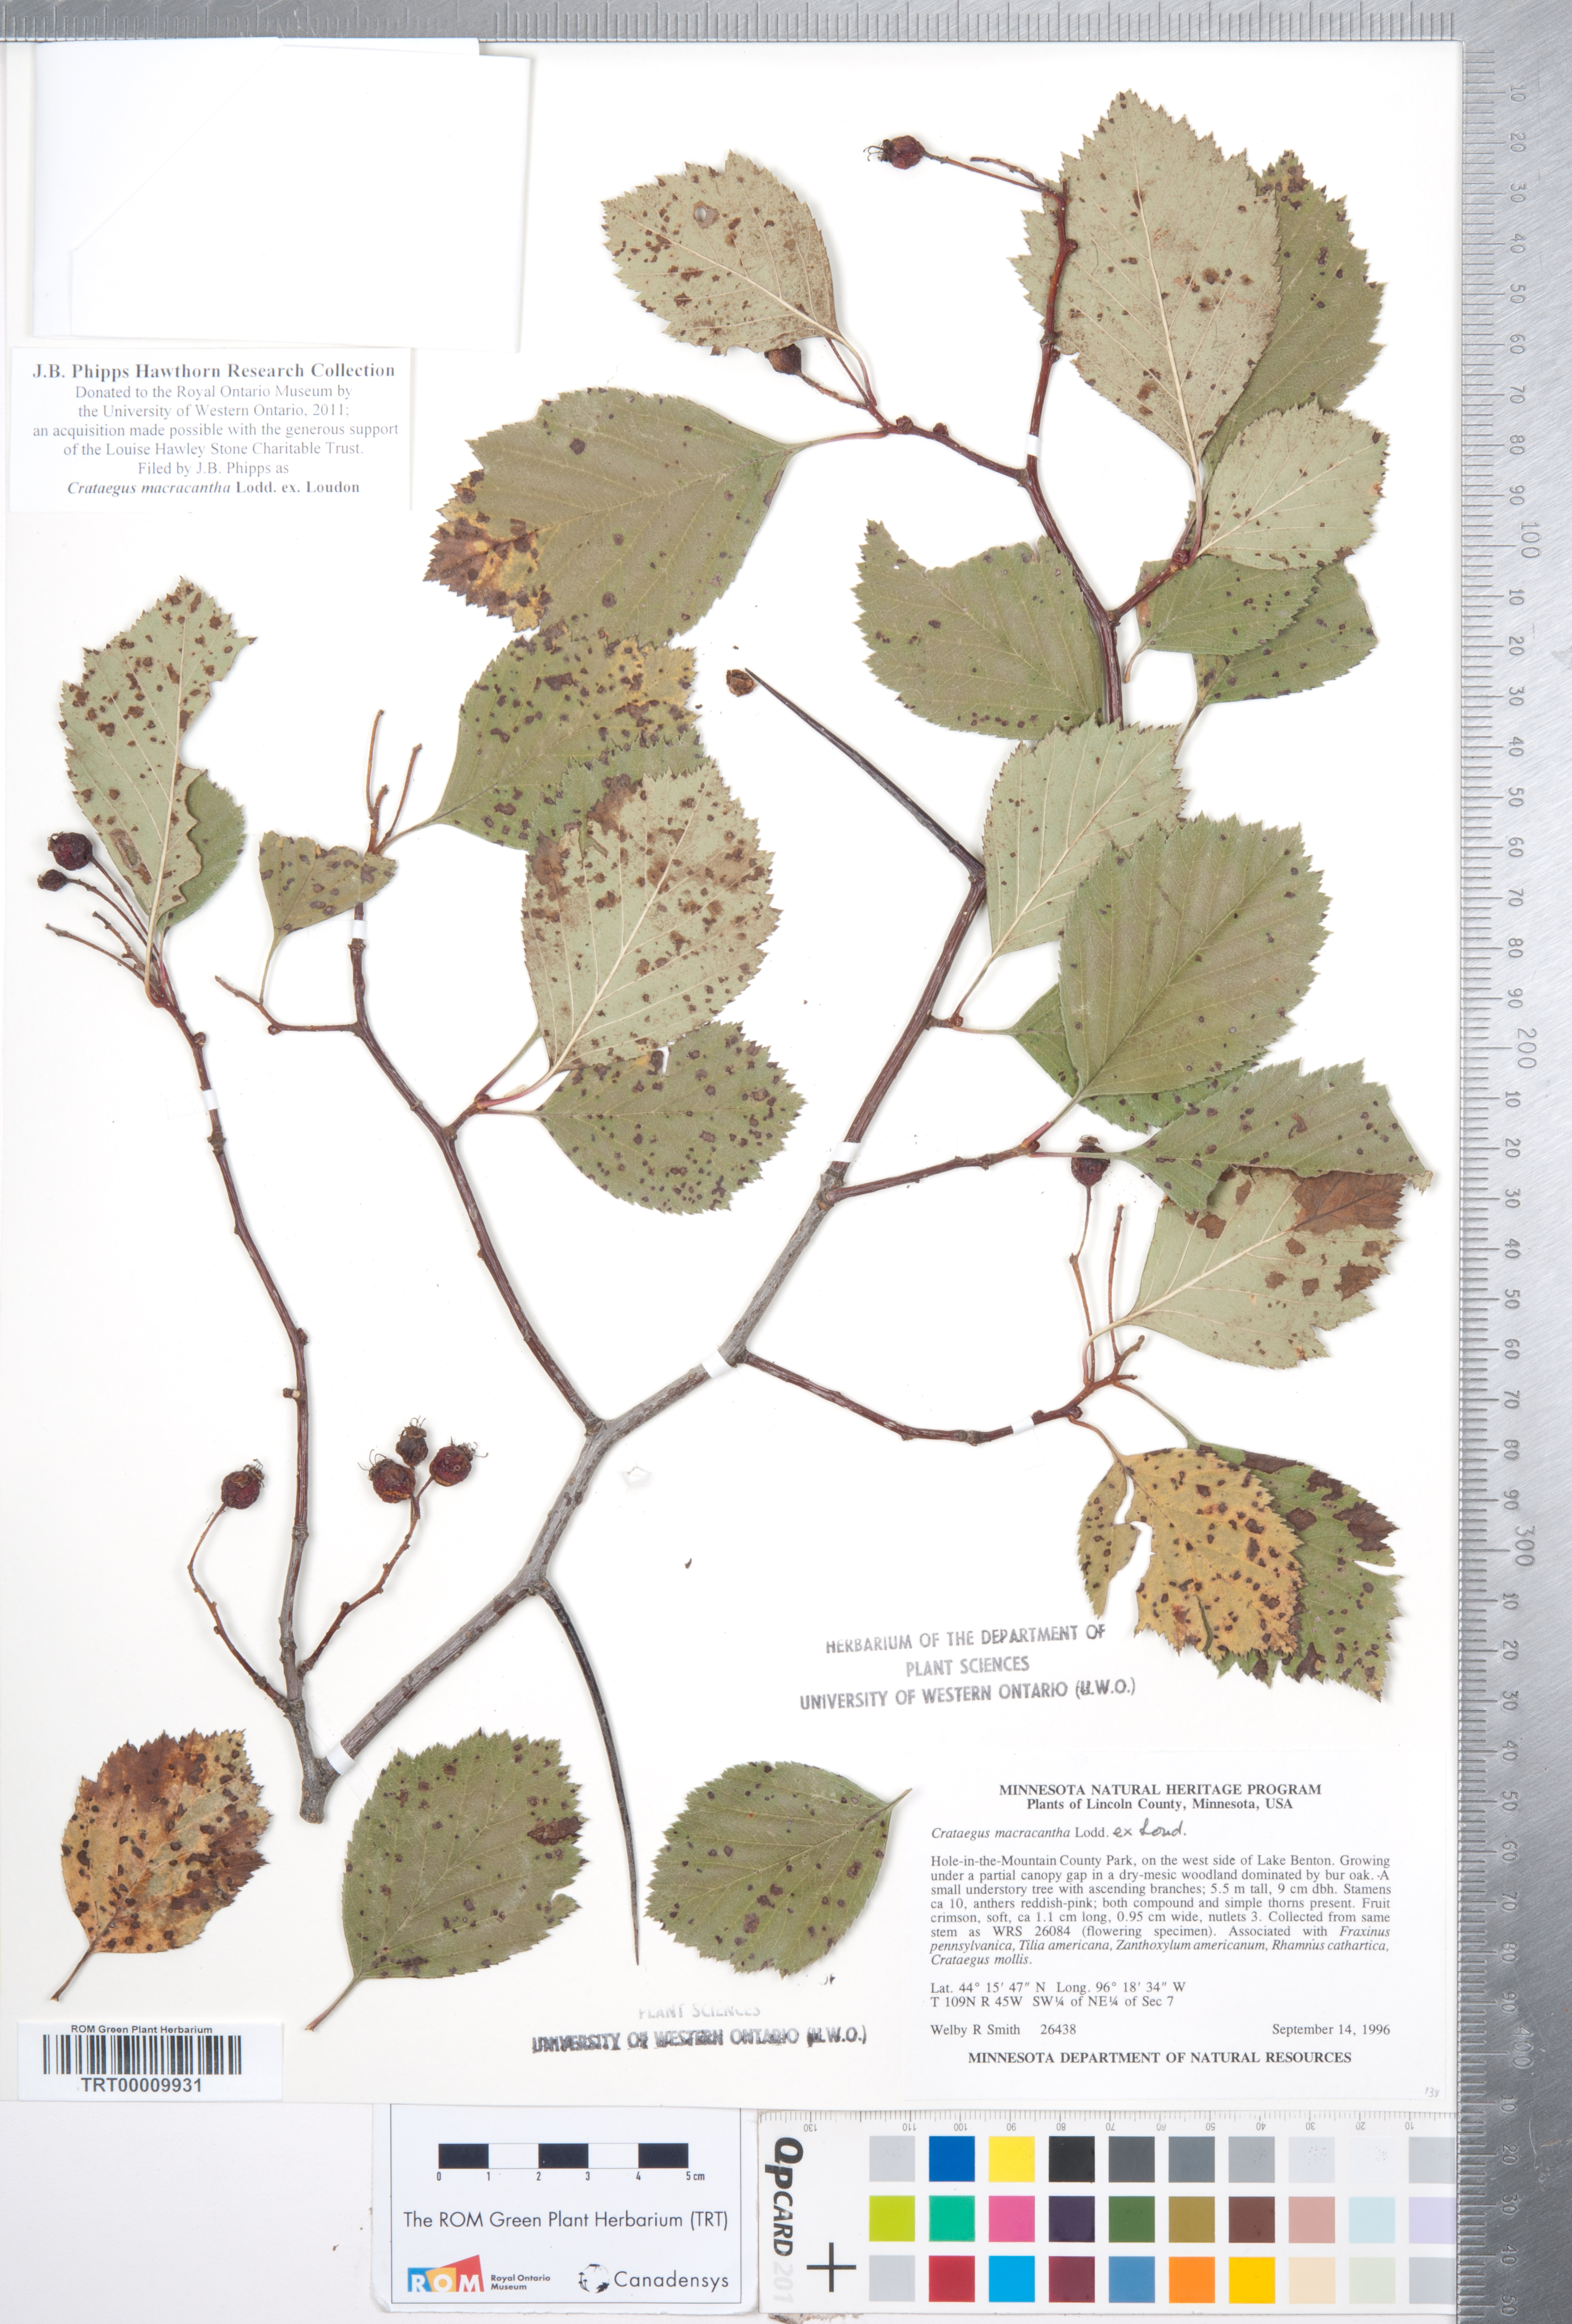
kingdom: Plantae
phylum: Tracheophyta
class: Magnoliopsida
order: Rosales
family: Rosaceae
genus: Crataegus
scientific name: Crataegus macracantha
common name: Large-thorn hawthorn
